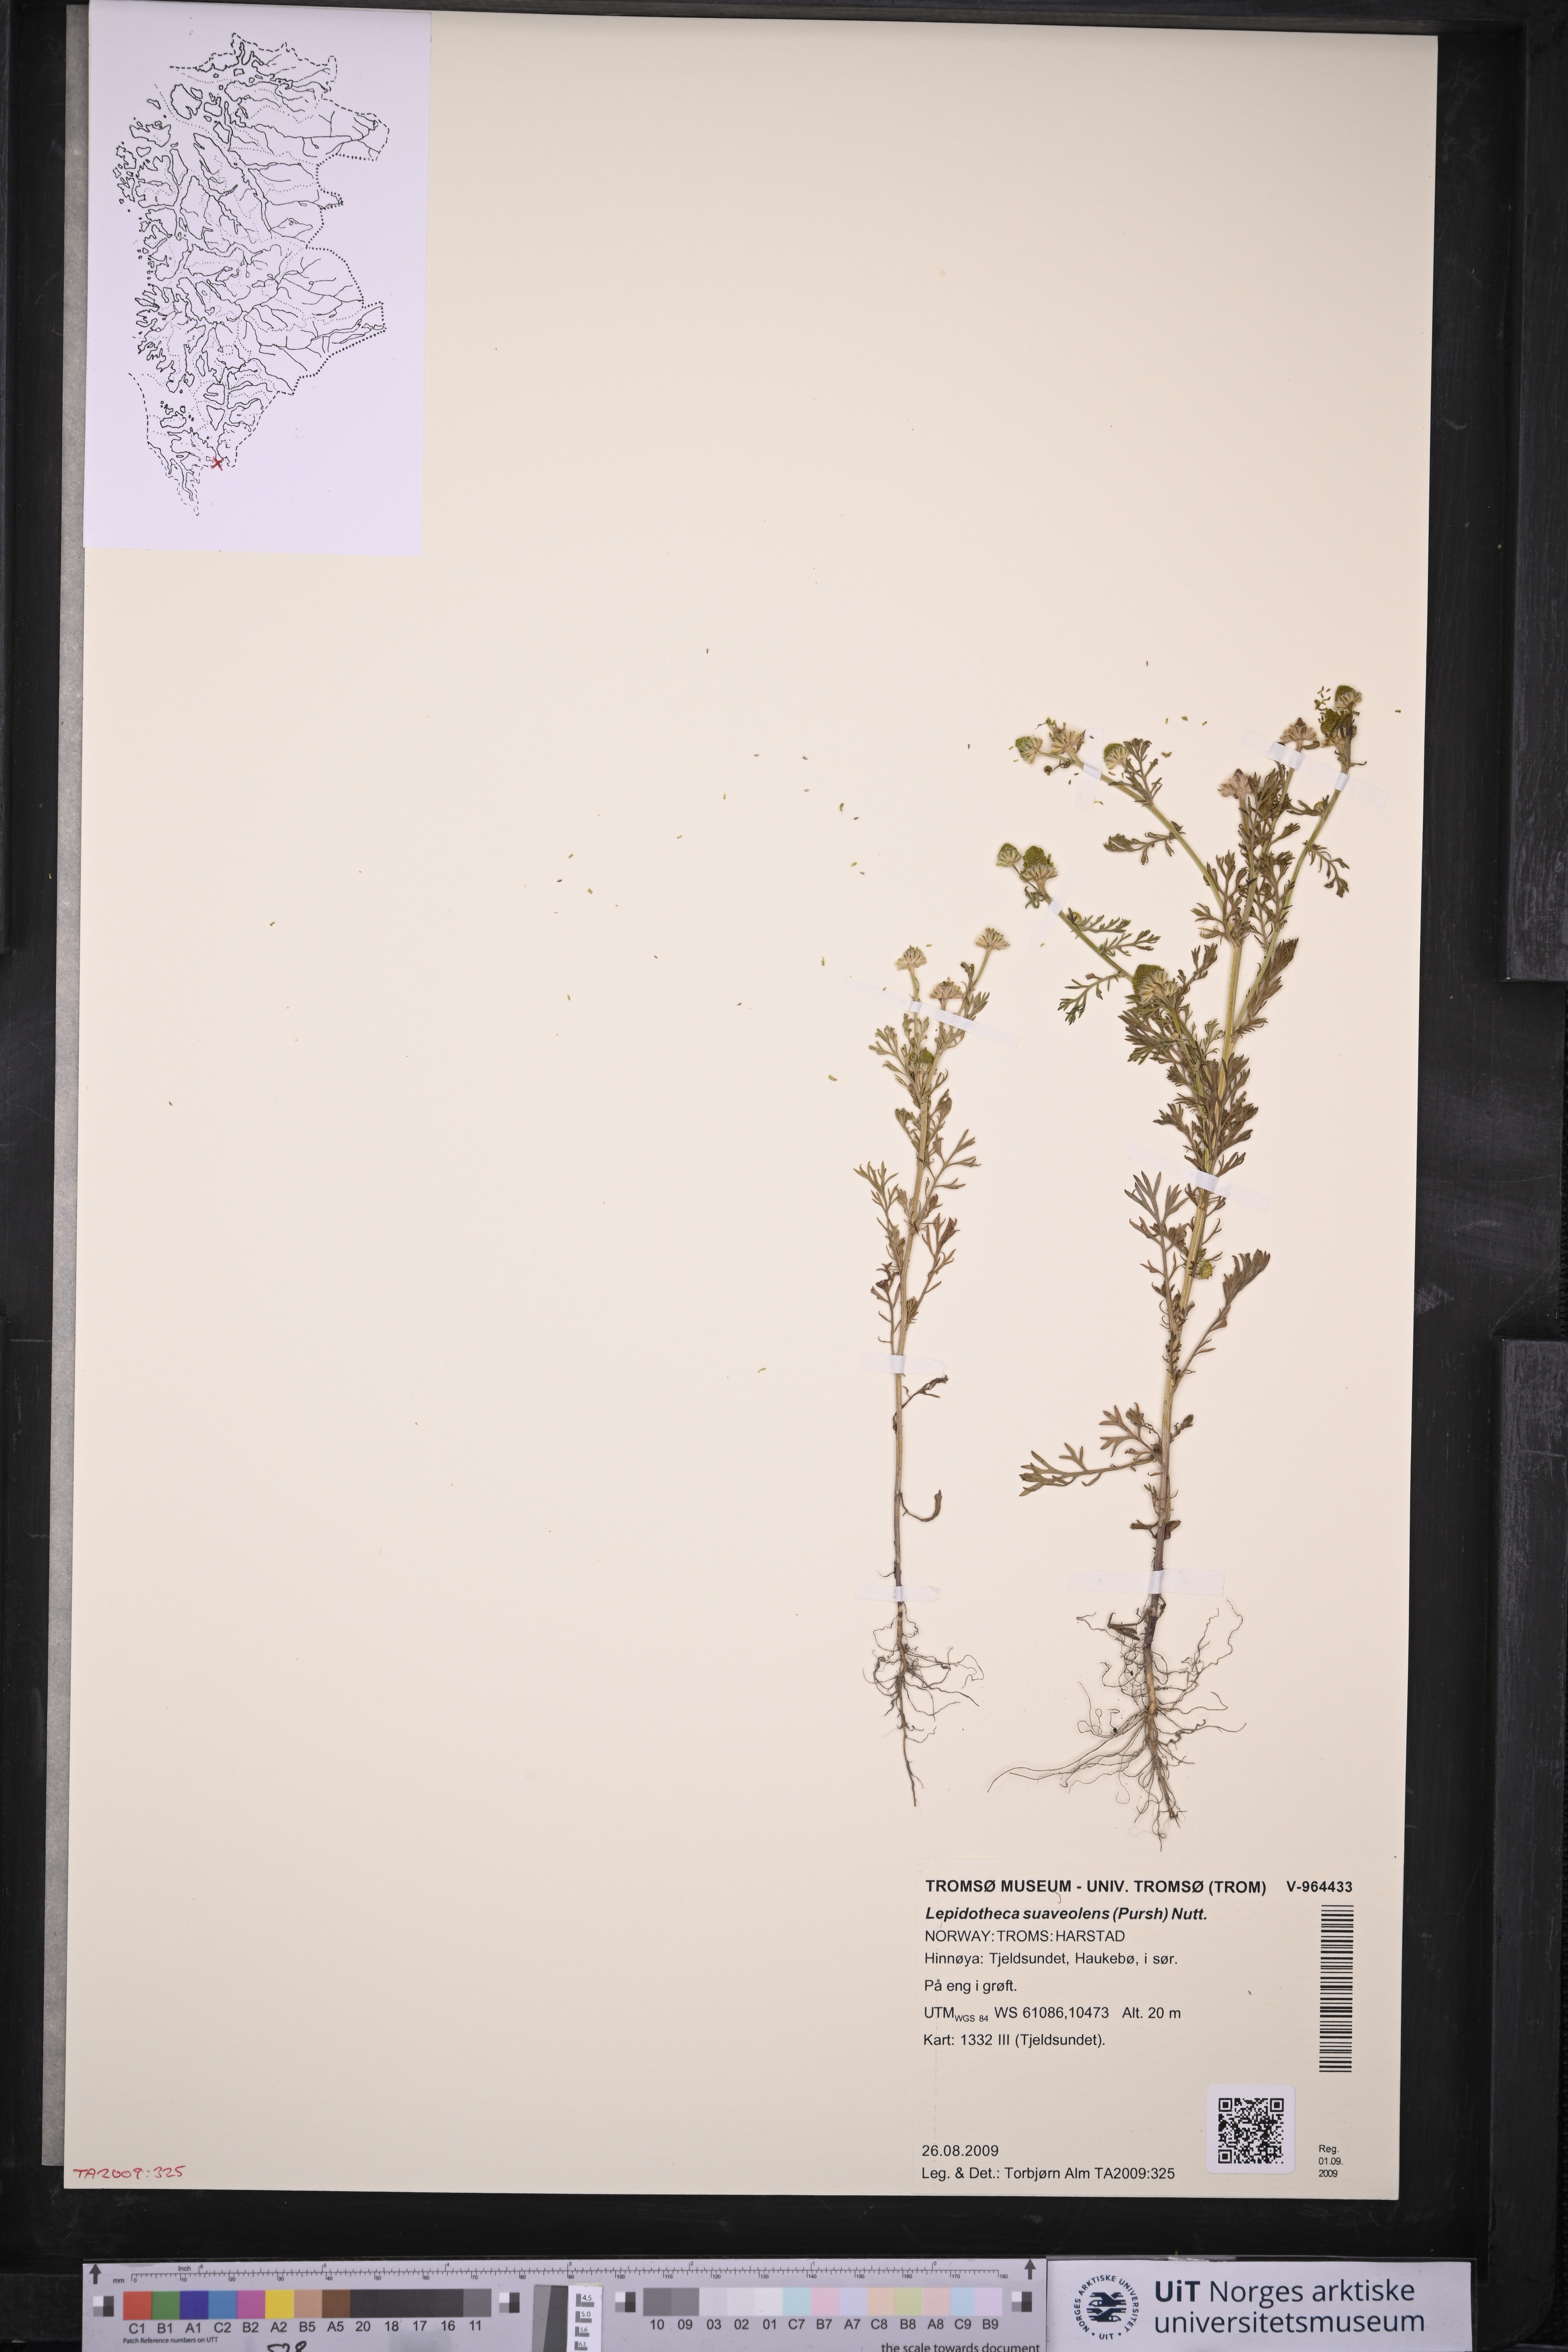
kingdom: Plantae
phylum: Tracheophyta
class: Magnoliopsida
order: Asterales
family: Asteraceae
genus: Matricaria
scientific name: Matricaria discoidea
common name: Disc mayweed
